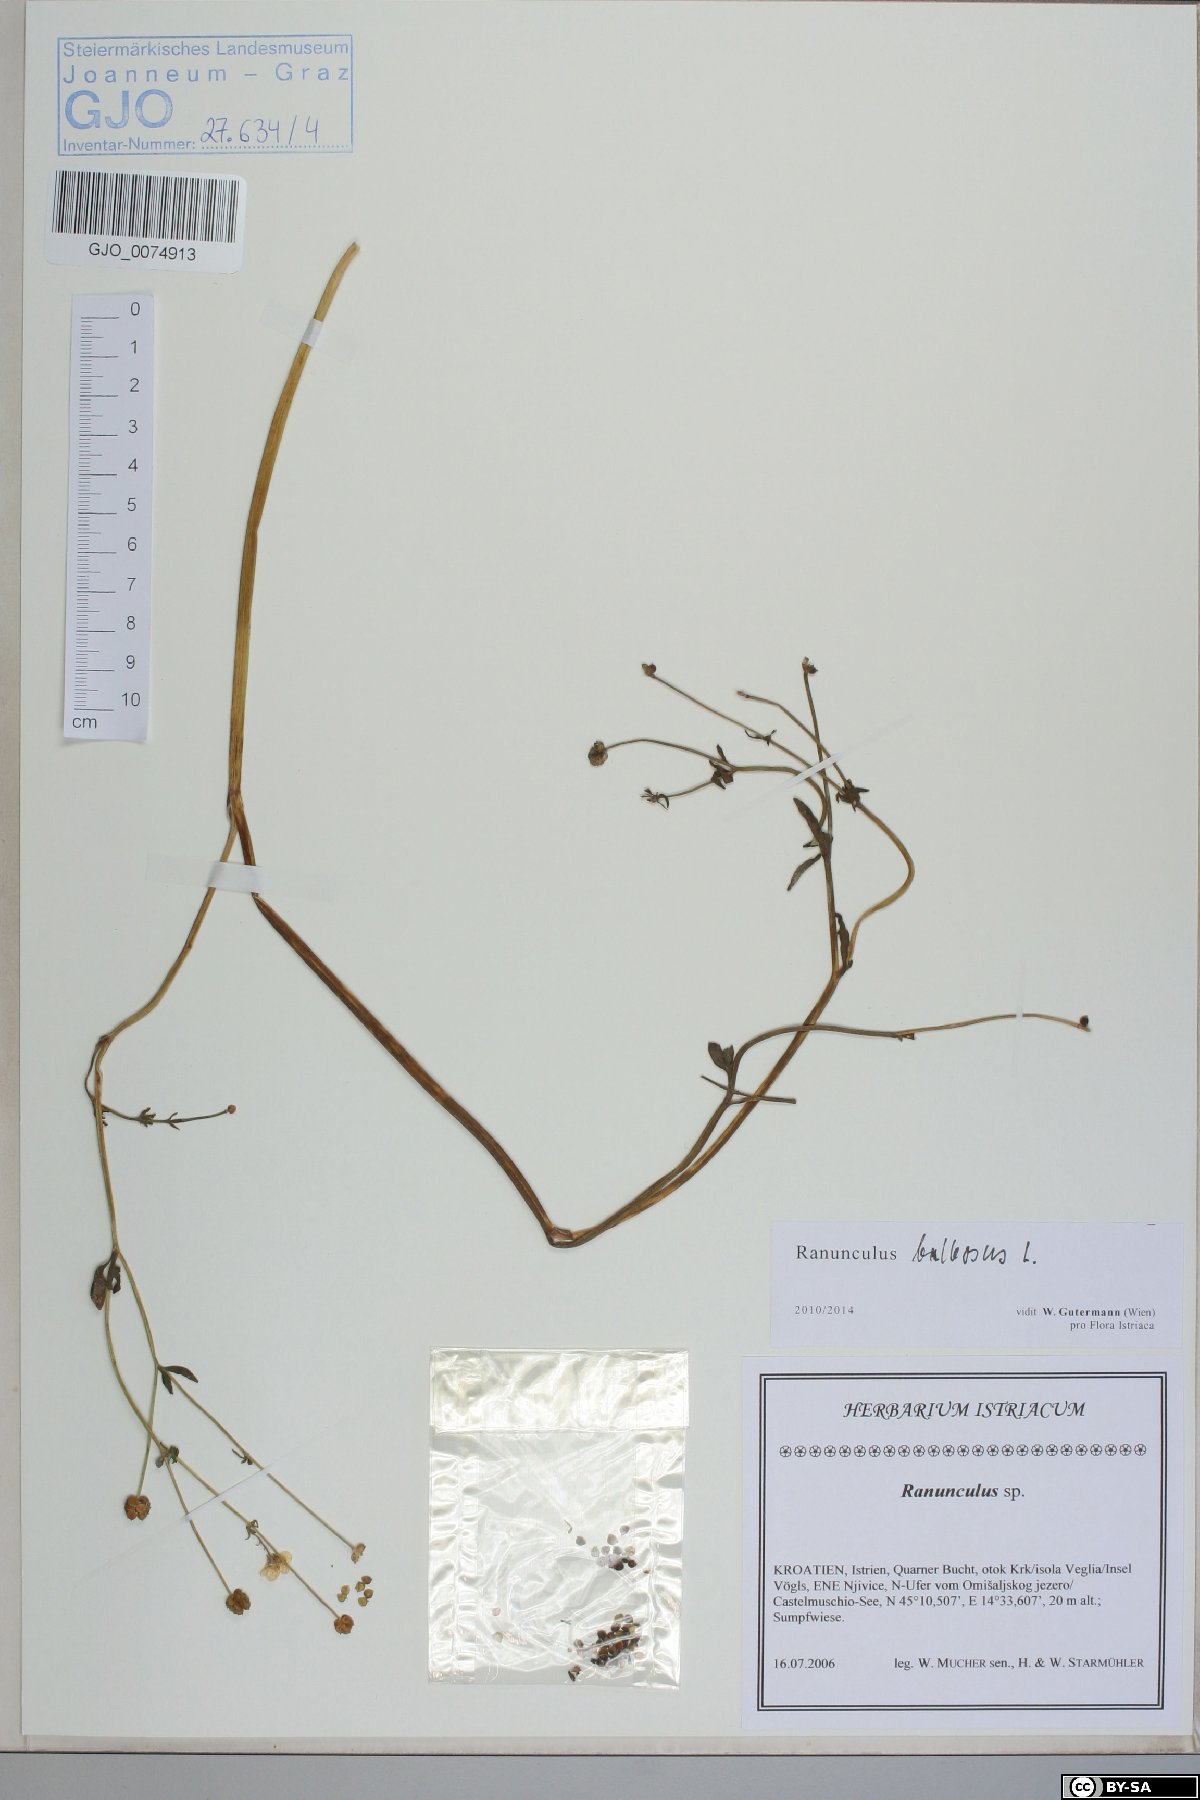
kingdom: Plantae
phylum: Tracheophyta
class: Magnoliopsida
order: Ranunculales
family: Ranunculaceae
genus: Ranunculus
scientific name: Ranunculus bulbosus
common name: Bulbous buttercup
